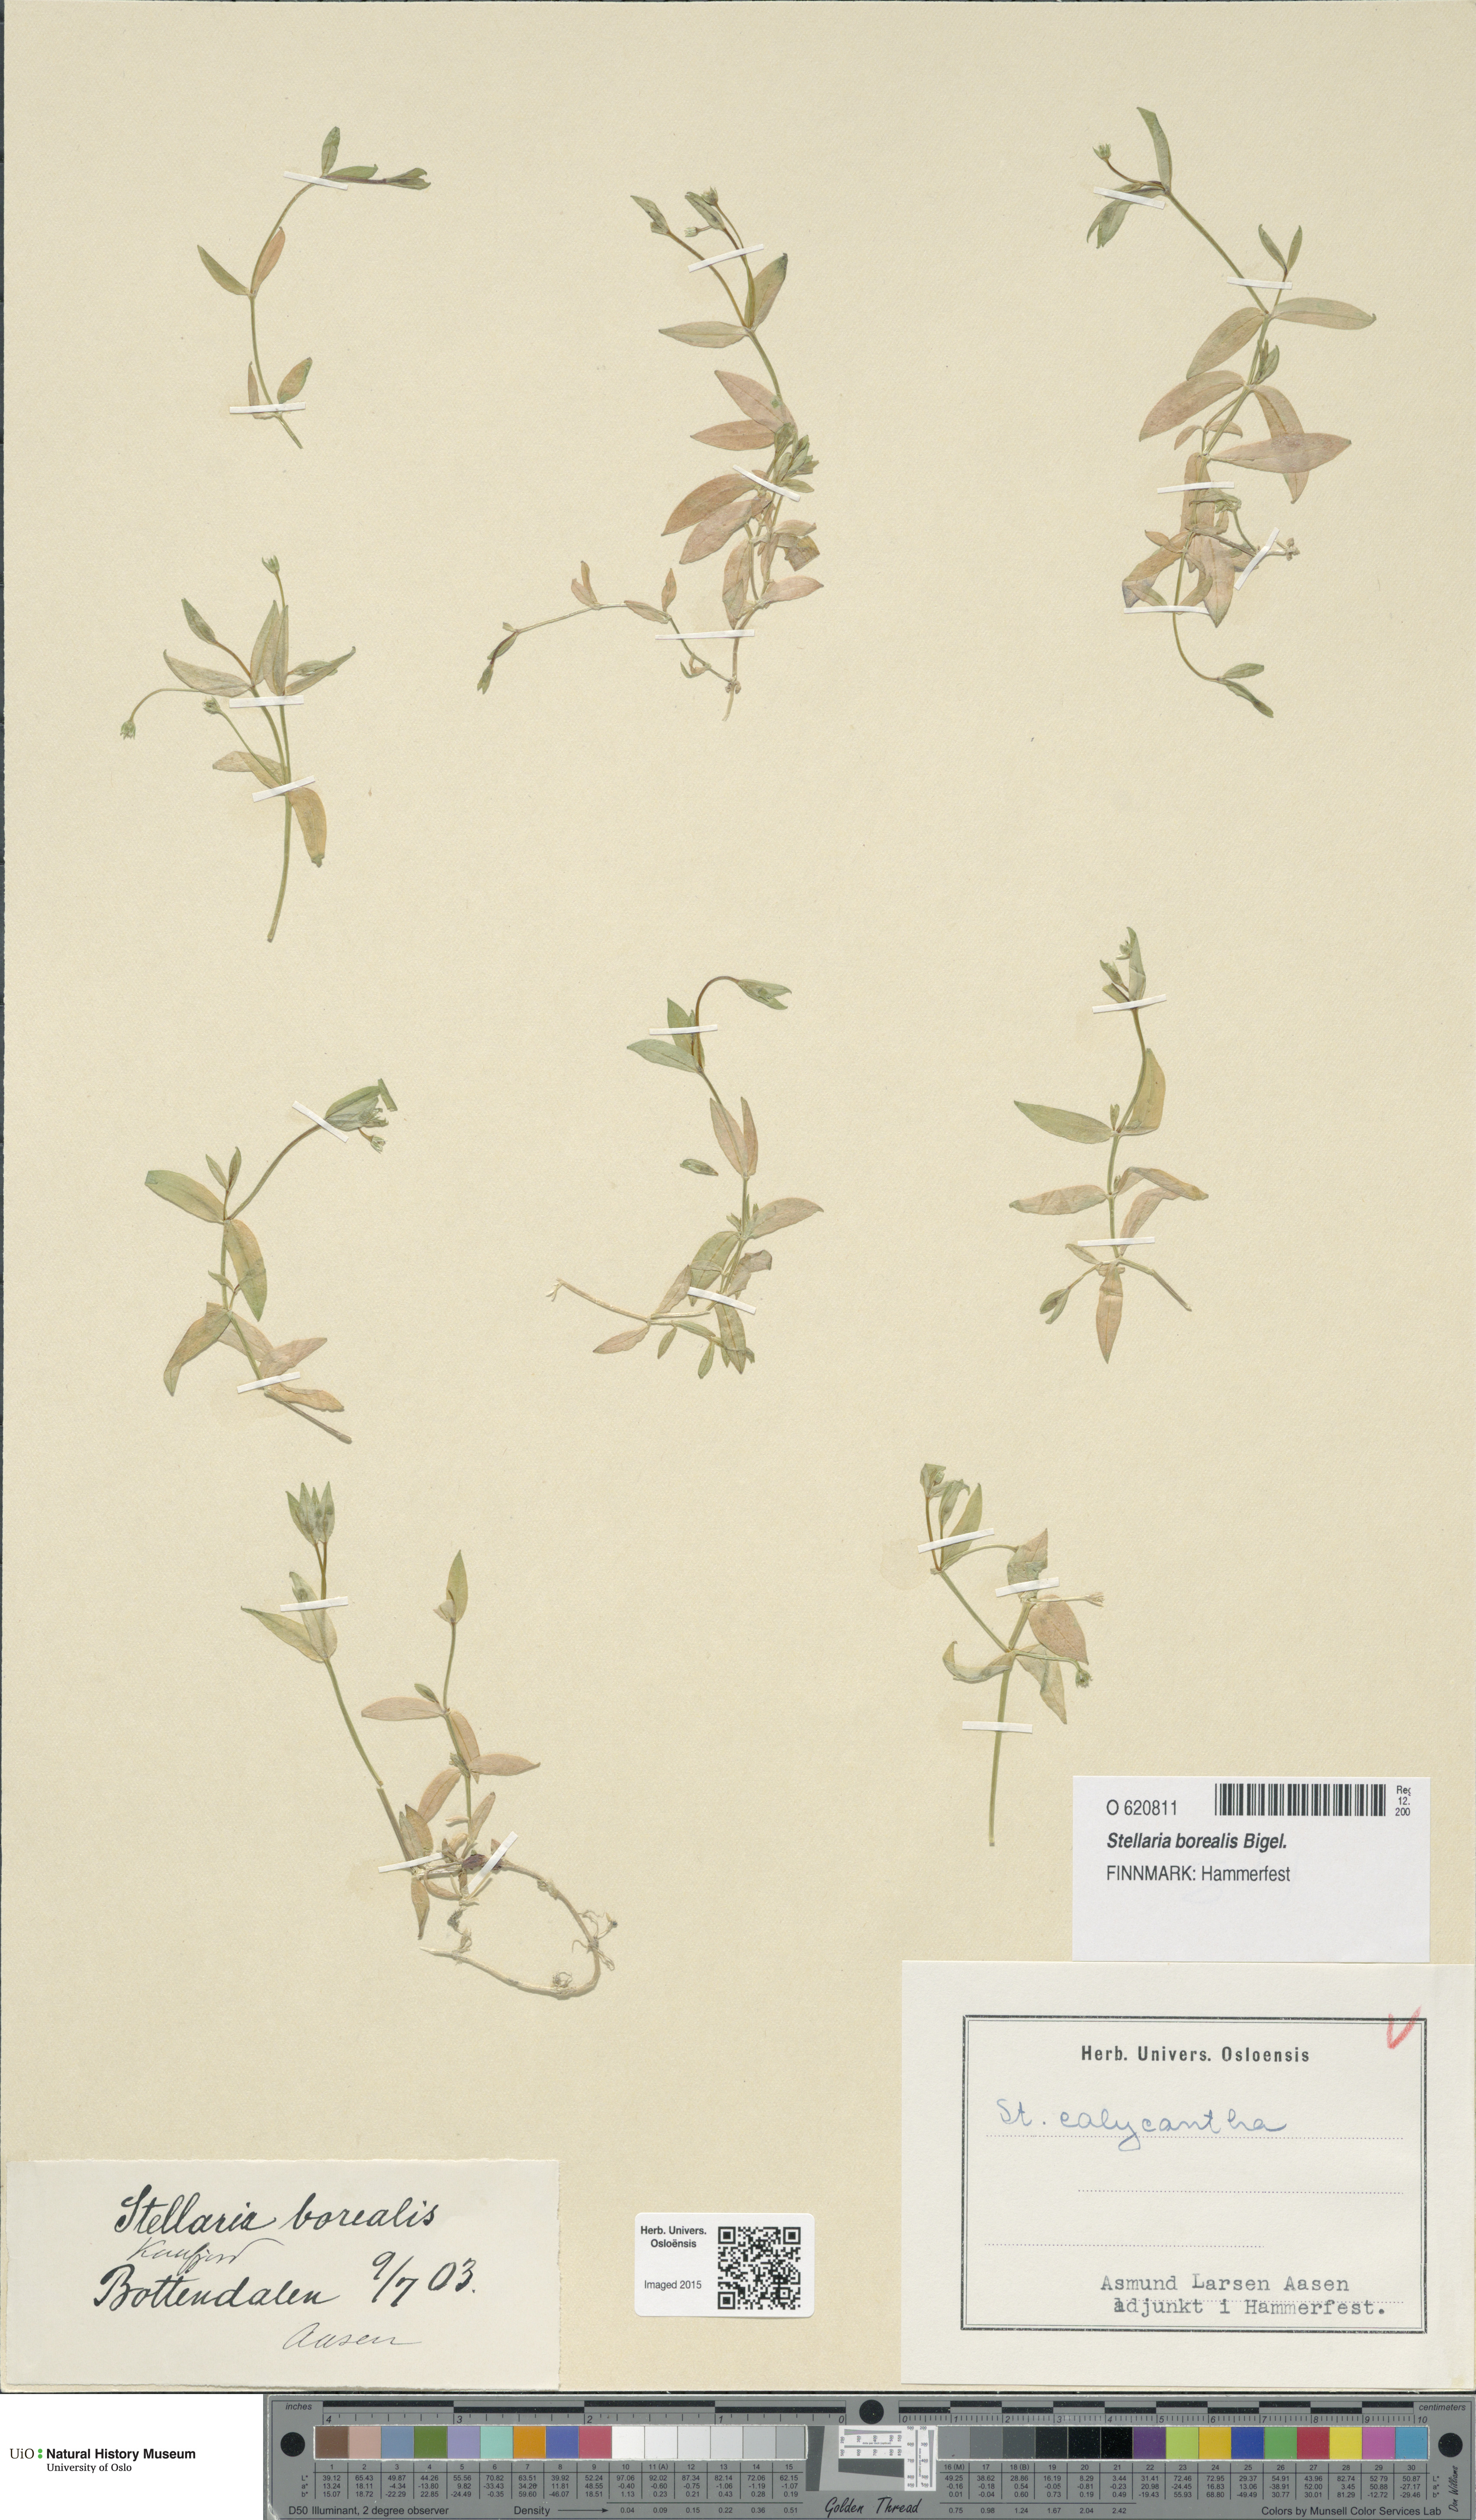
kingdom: Plantae
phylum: Tracheophyta
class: Magnoliopsida
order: Caryophyllales
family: Caryophyllaceae
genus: Stellaria
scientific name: Stellaria borealis
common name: Boreal starwort
